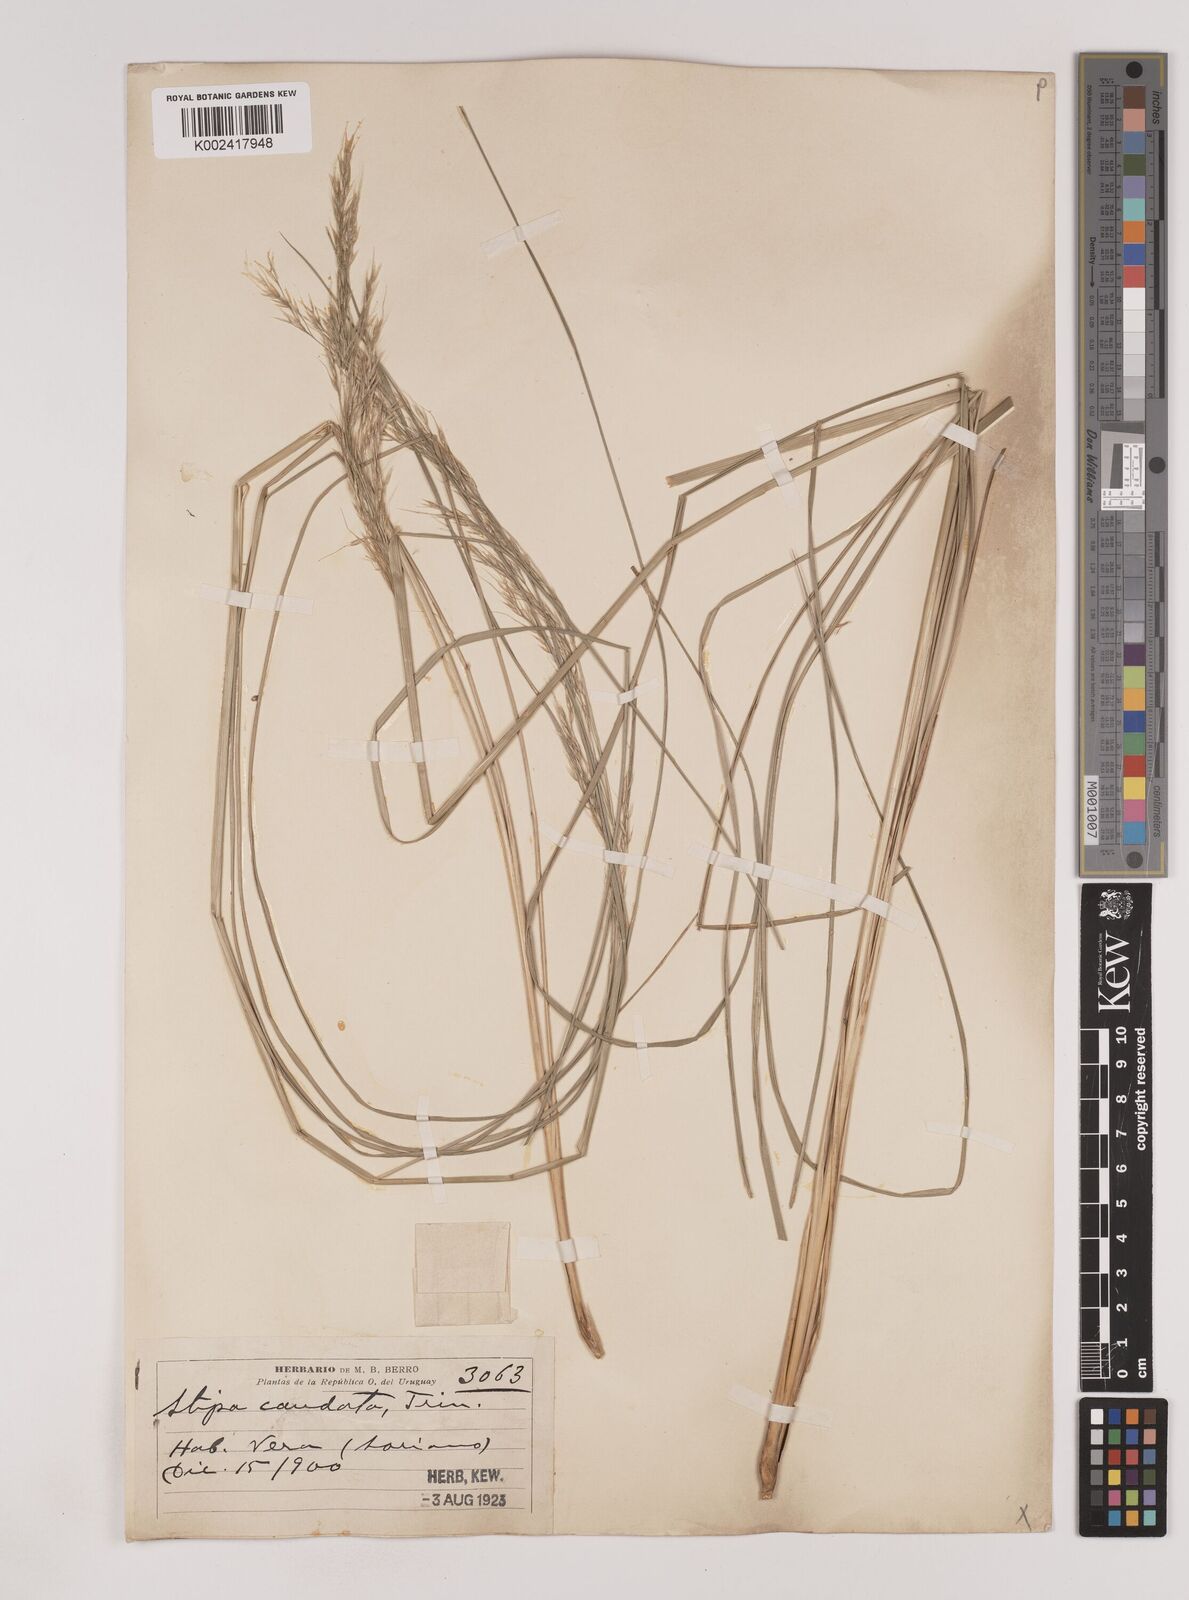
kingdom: Plantae
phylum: Tracheophyta
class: Liliopsida
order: Poales
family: Poaceae
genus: Nassella
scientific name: Nassella philippii
